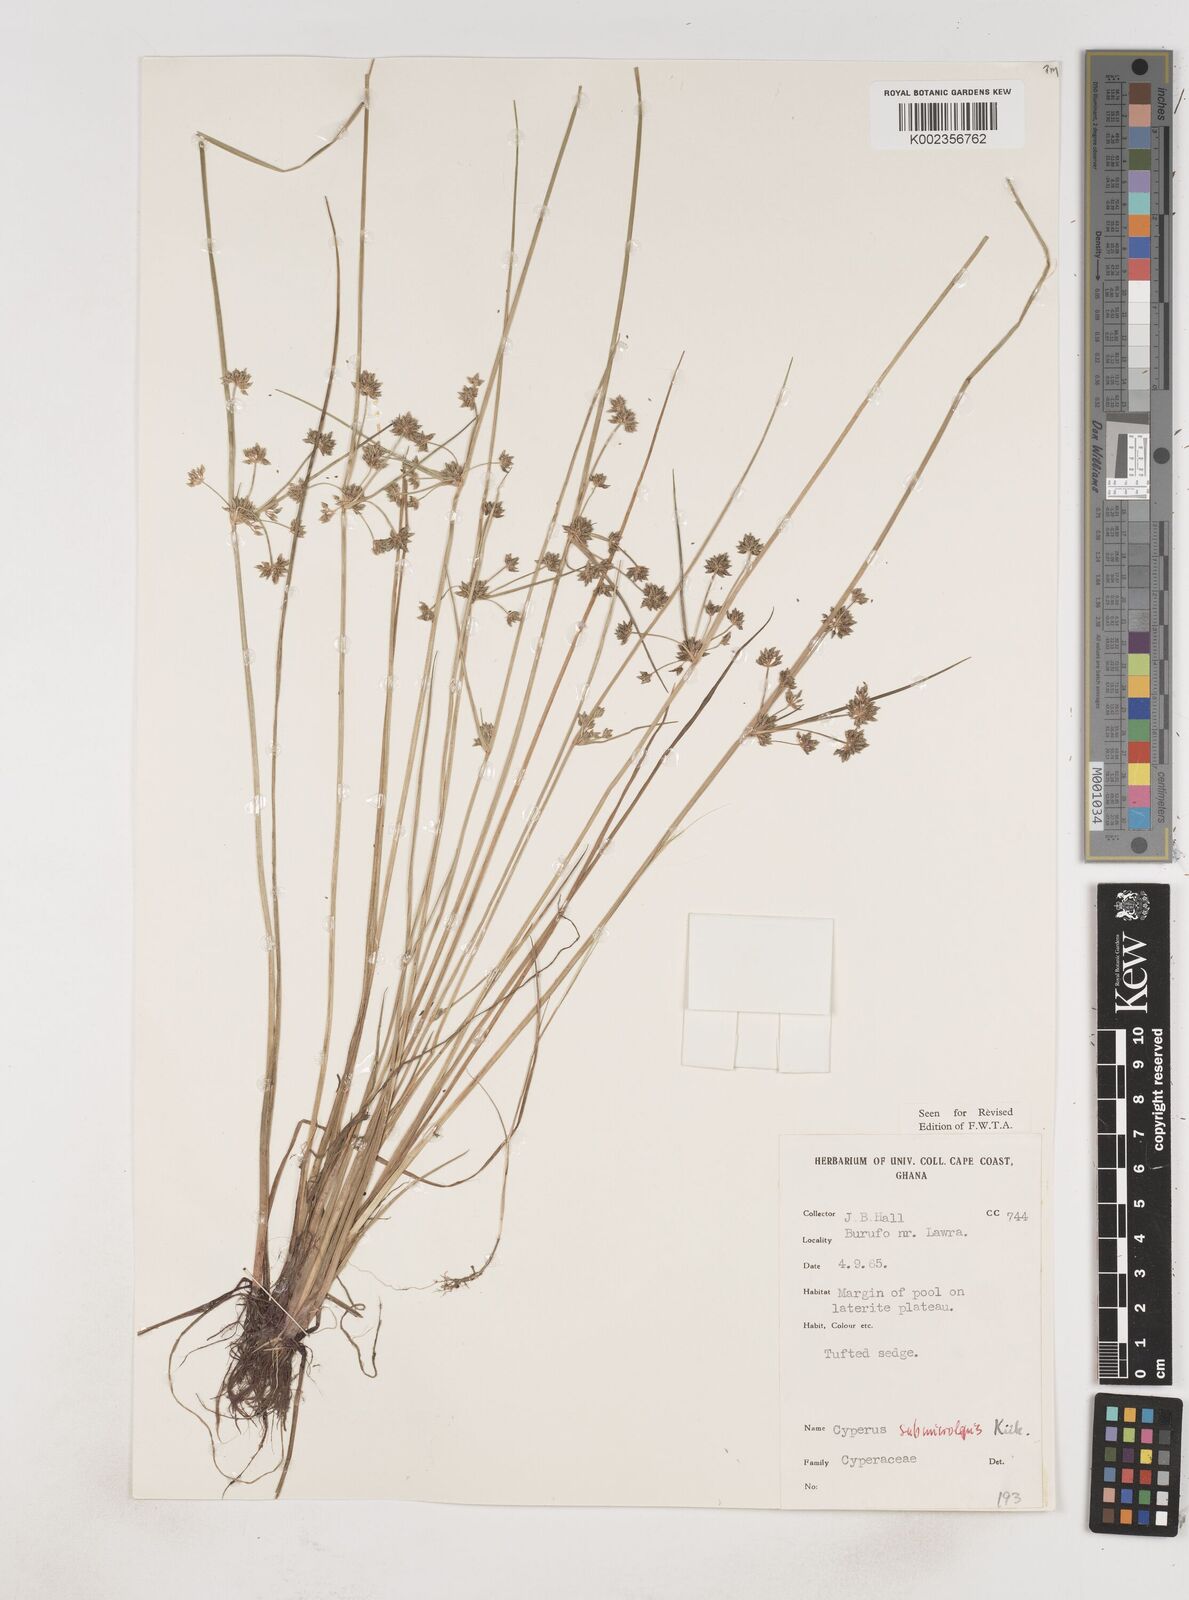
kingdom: Plantae
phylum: Tracheophyta
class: Liliopsida
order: Poales
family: Cyperaceae
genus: Cyperus
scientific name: Cyperus submicrolepis
